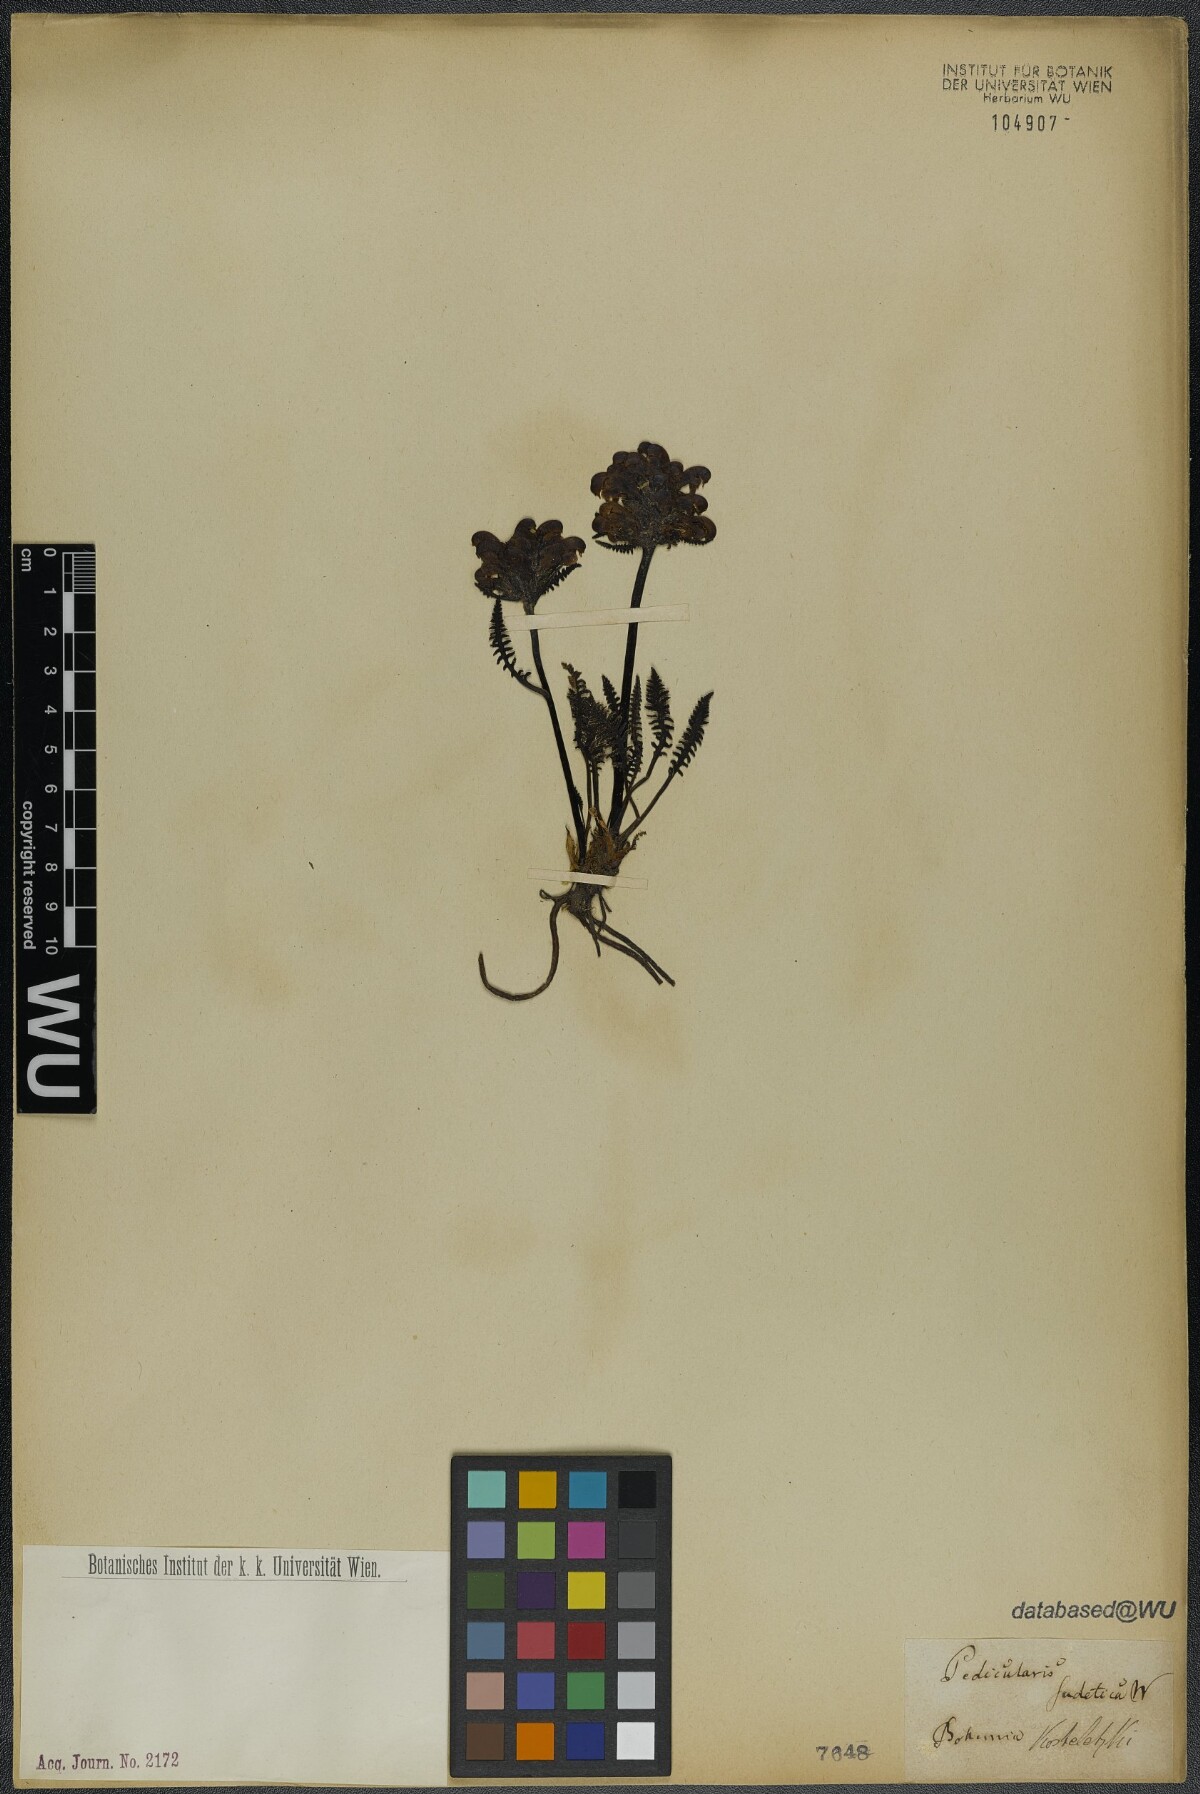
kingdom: Plantae
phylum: Tracheophyta
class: Magnoliopsida
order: Lamiales
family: Orobanchaceae
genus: Pedicularis
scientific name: Pedicularis sudetica
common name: Sudeten lousewort
